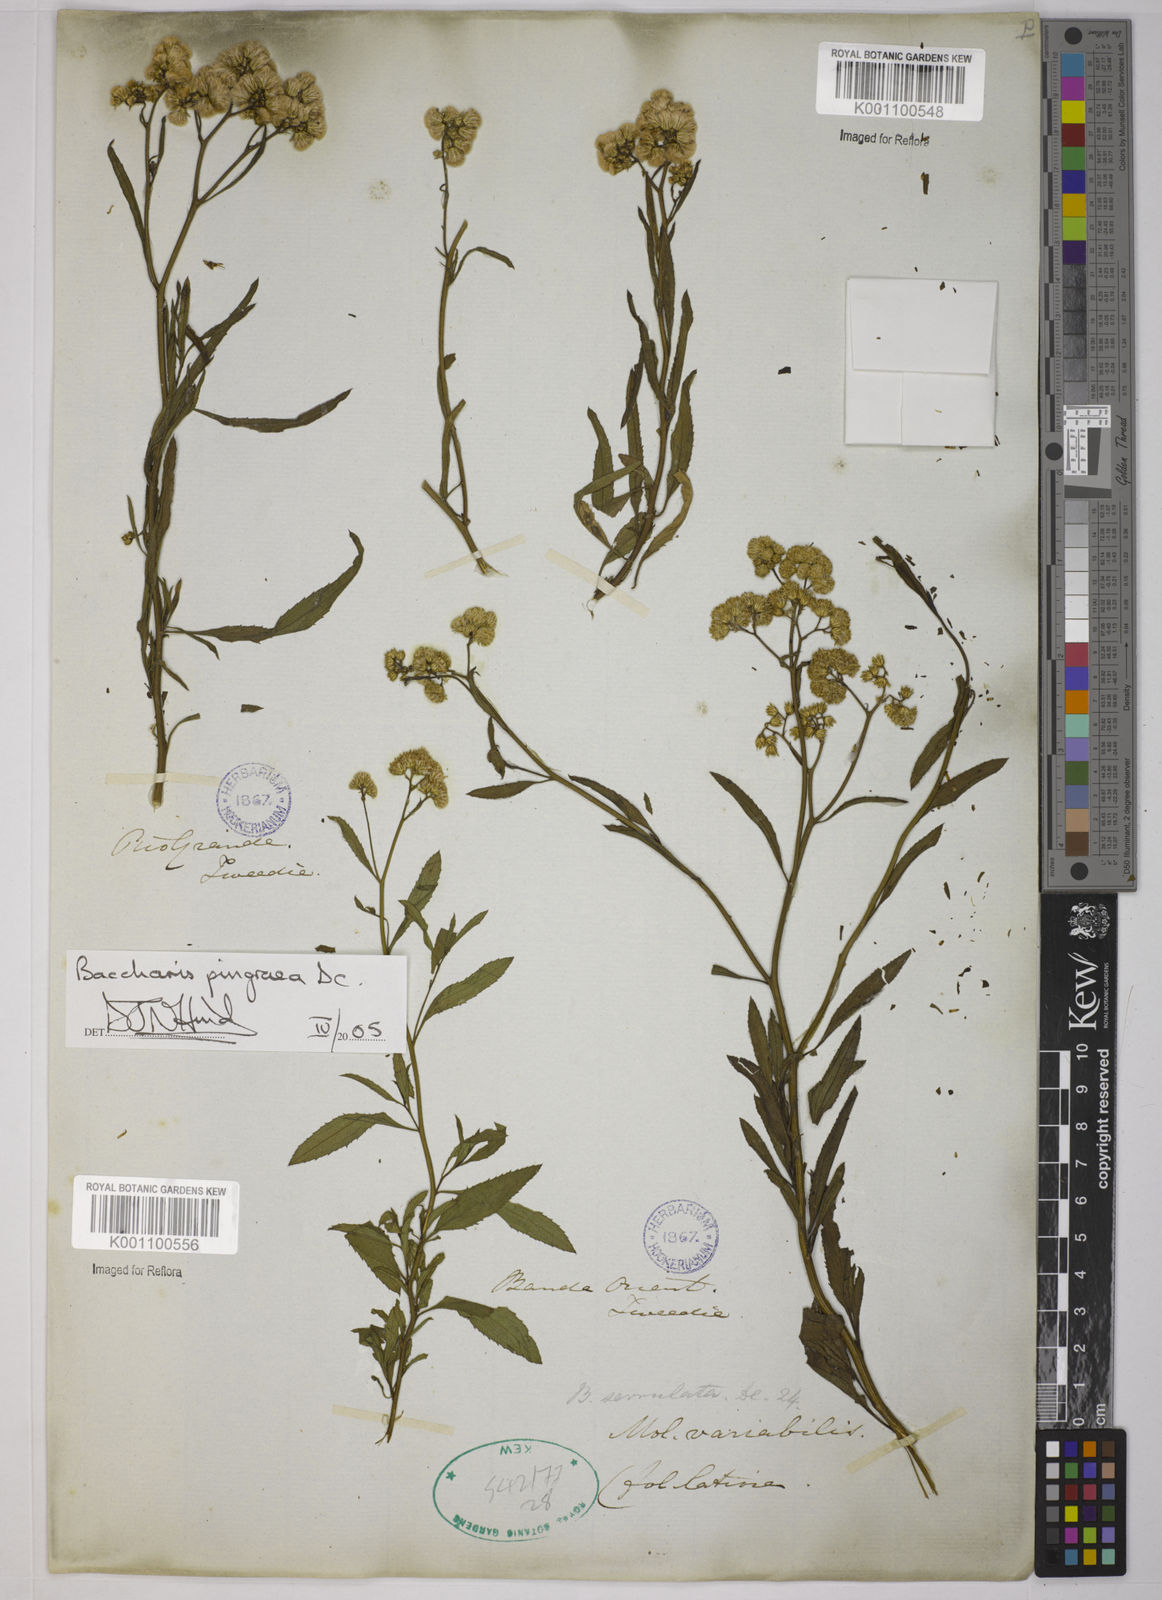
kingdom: Plantae
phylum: Tracheophyta
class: Magnoliopsida
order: Asterales
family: Asteraceae
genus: Baccharis
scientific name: Baccharis glutinosa
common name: Saltmarsh baccharis
